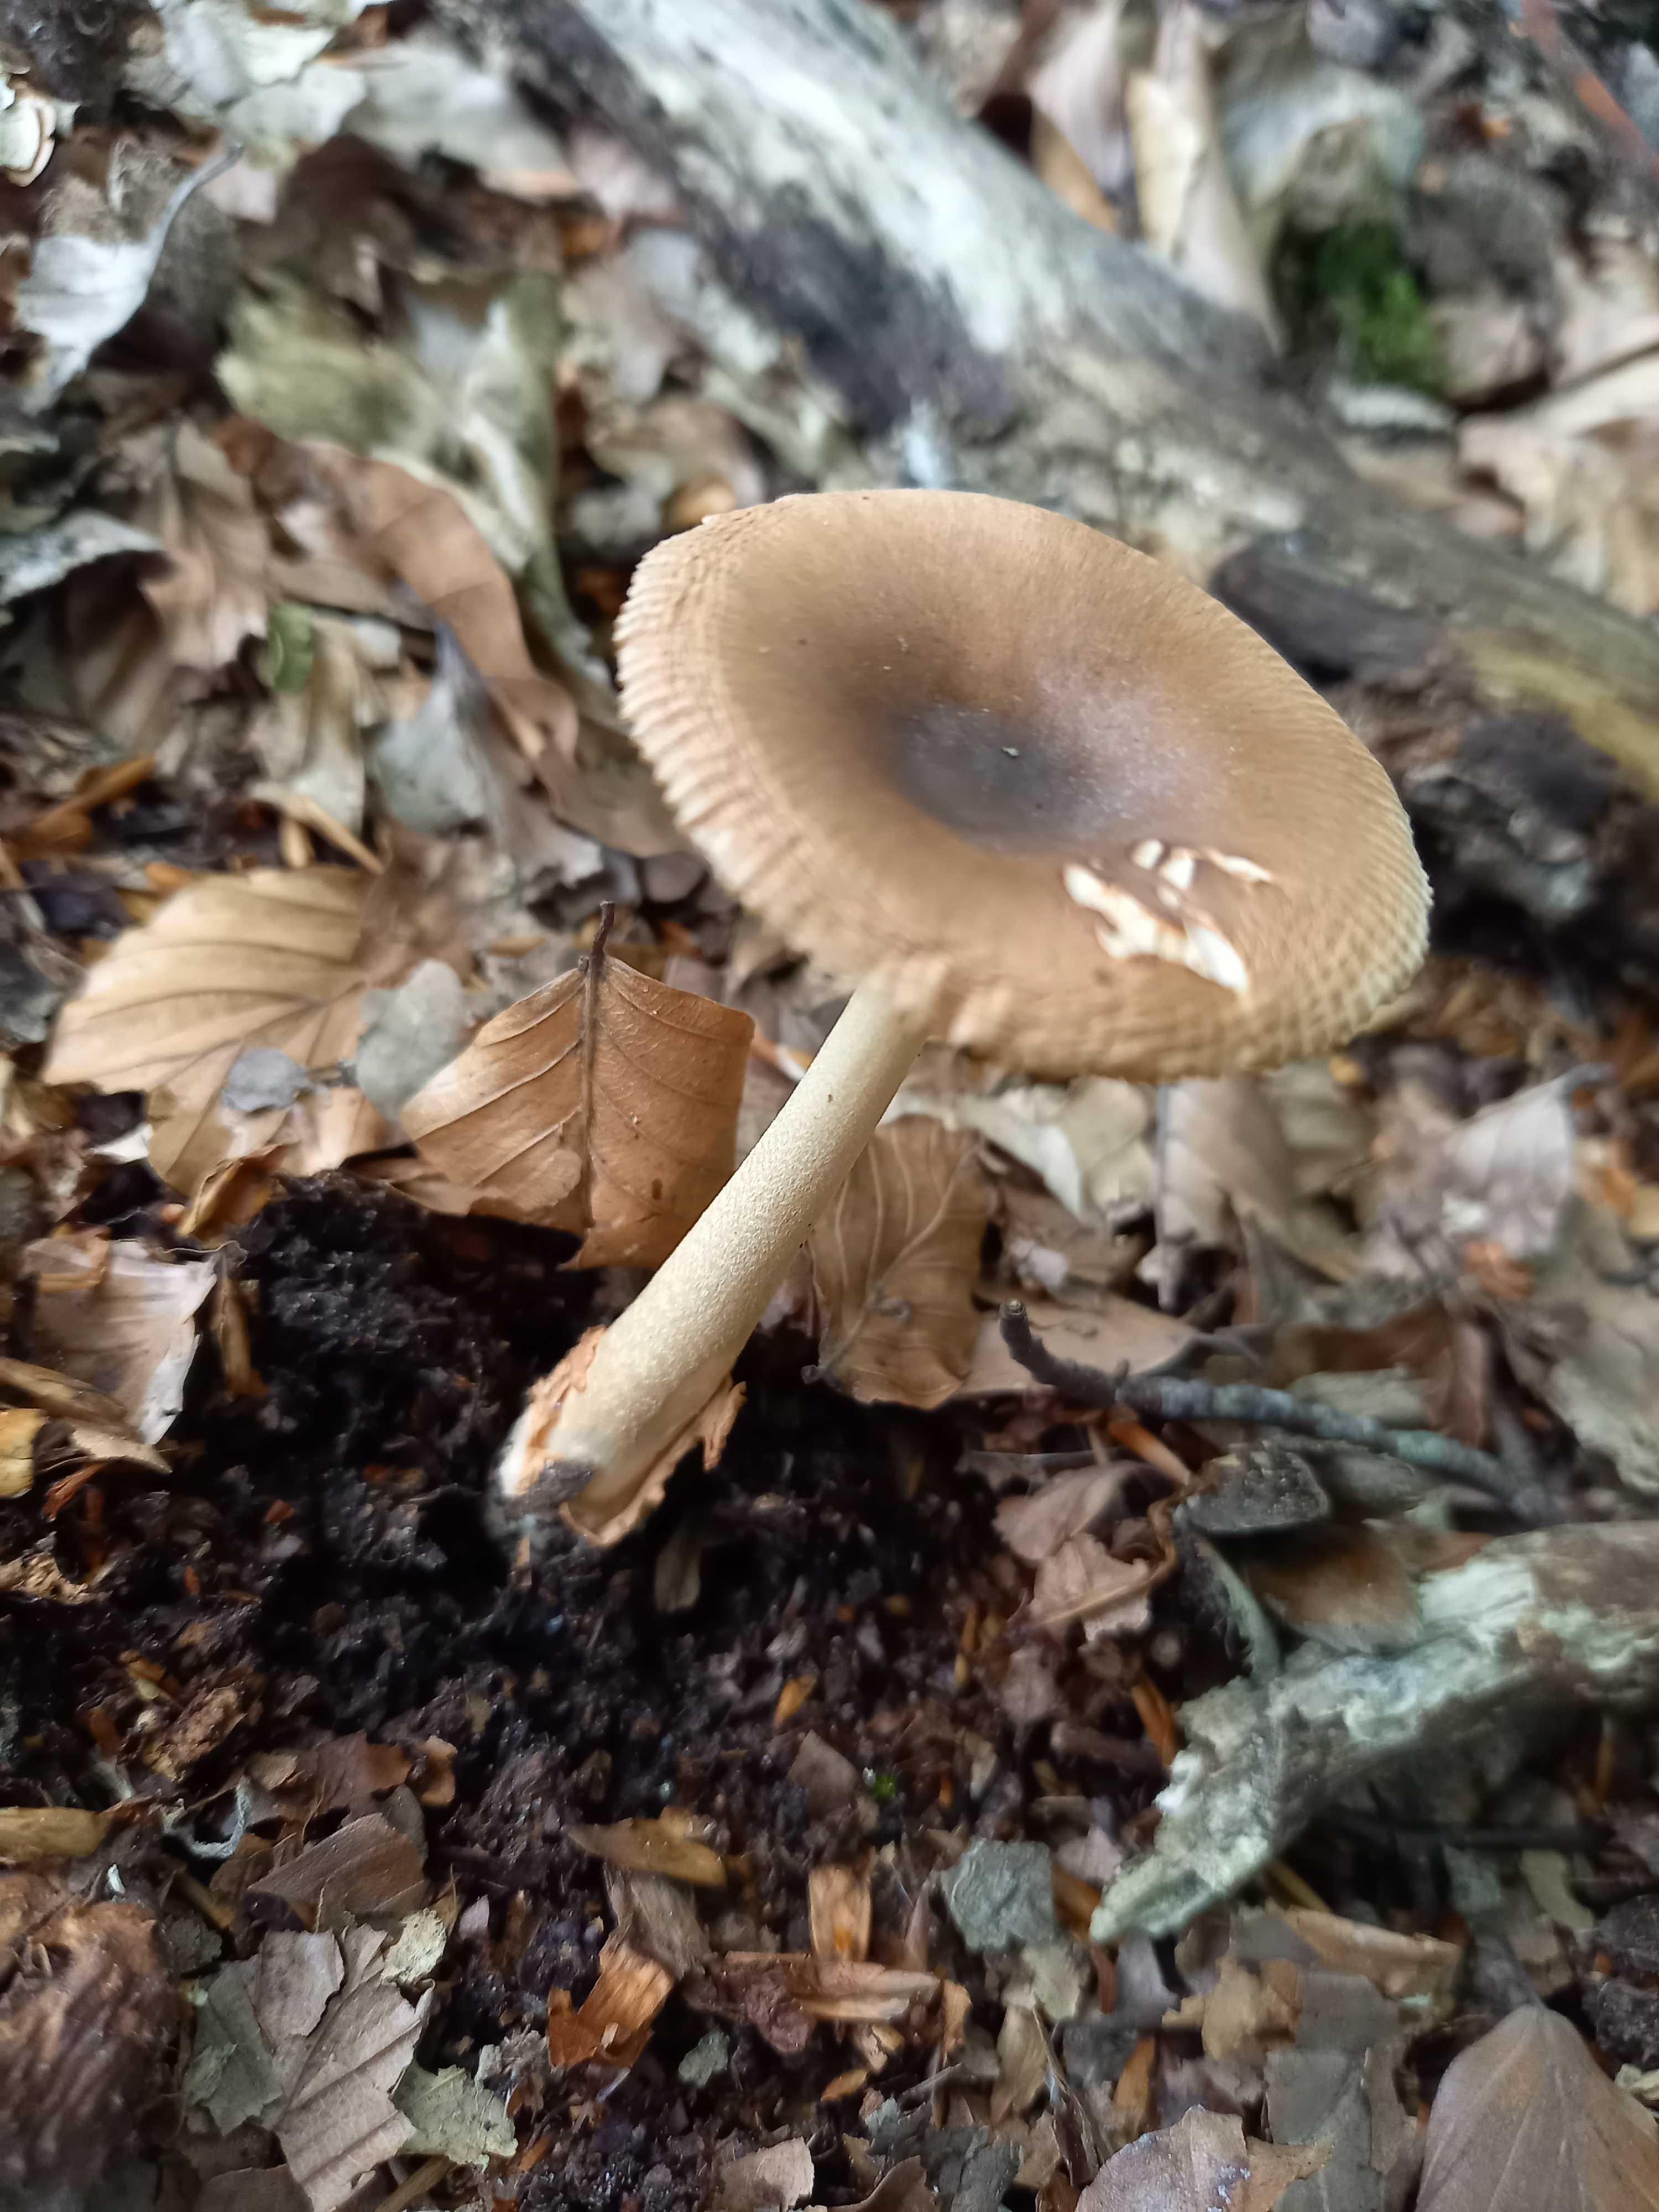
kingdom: Fungi
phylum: Basidiomycota
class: Agaricomycetes
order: Agaricales
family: Amanitaceae
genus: Amanita
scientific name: Amanita fulva
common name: brun kam-fluesvamp
